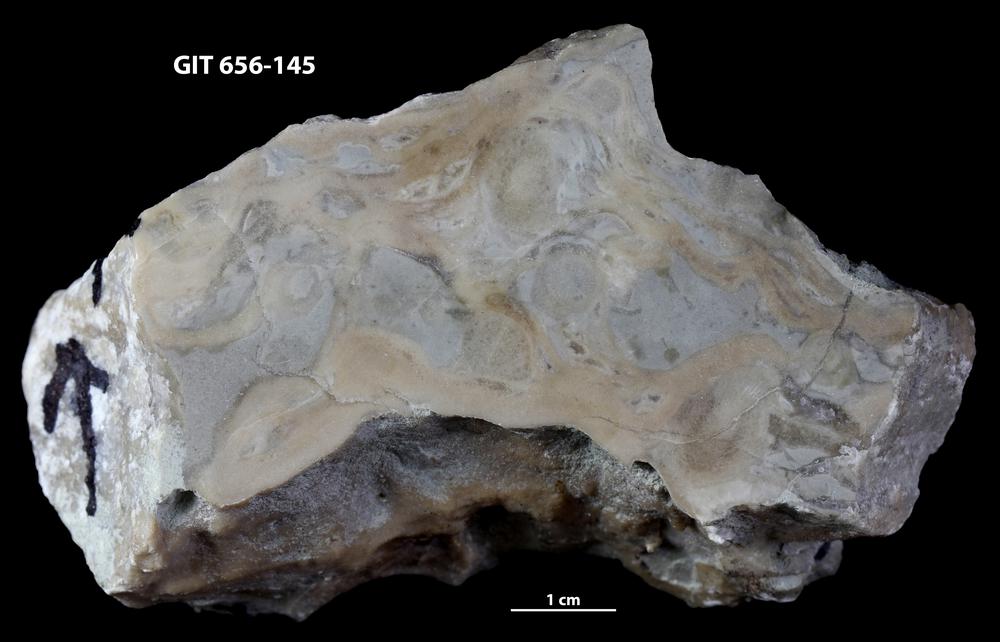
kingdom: Animalia
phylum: Cnidaria
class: Anthozoa
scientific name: Anthozoa
